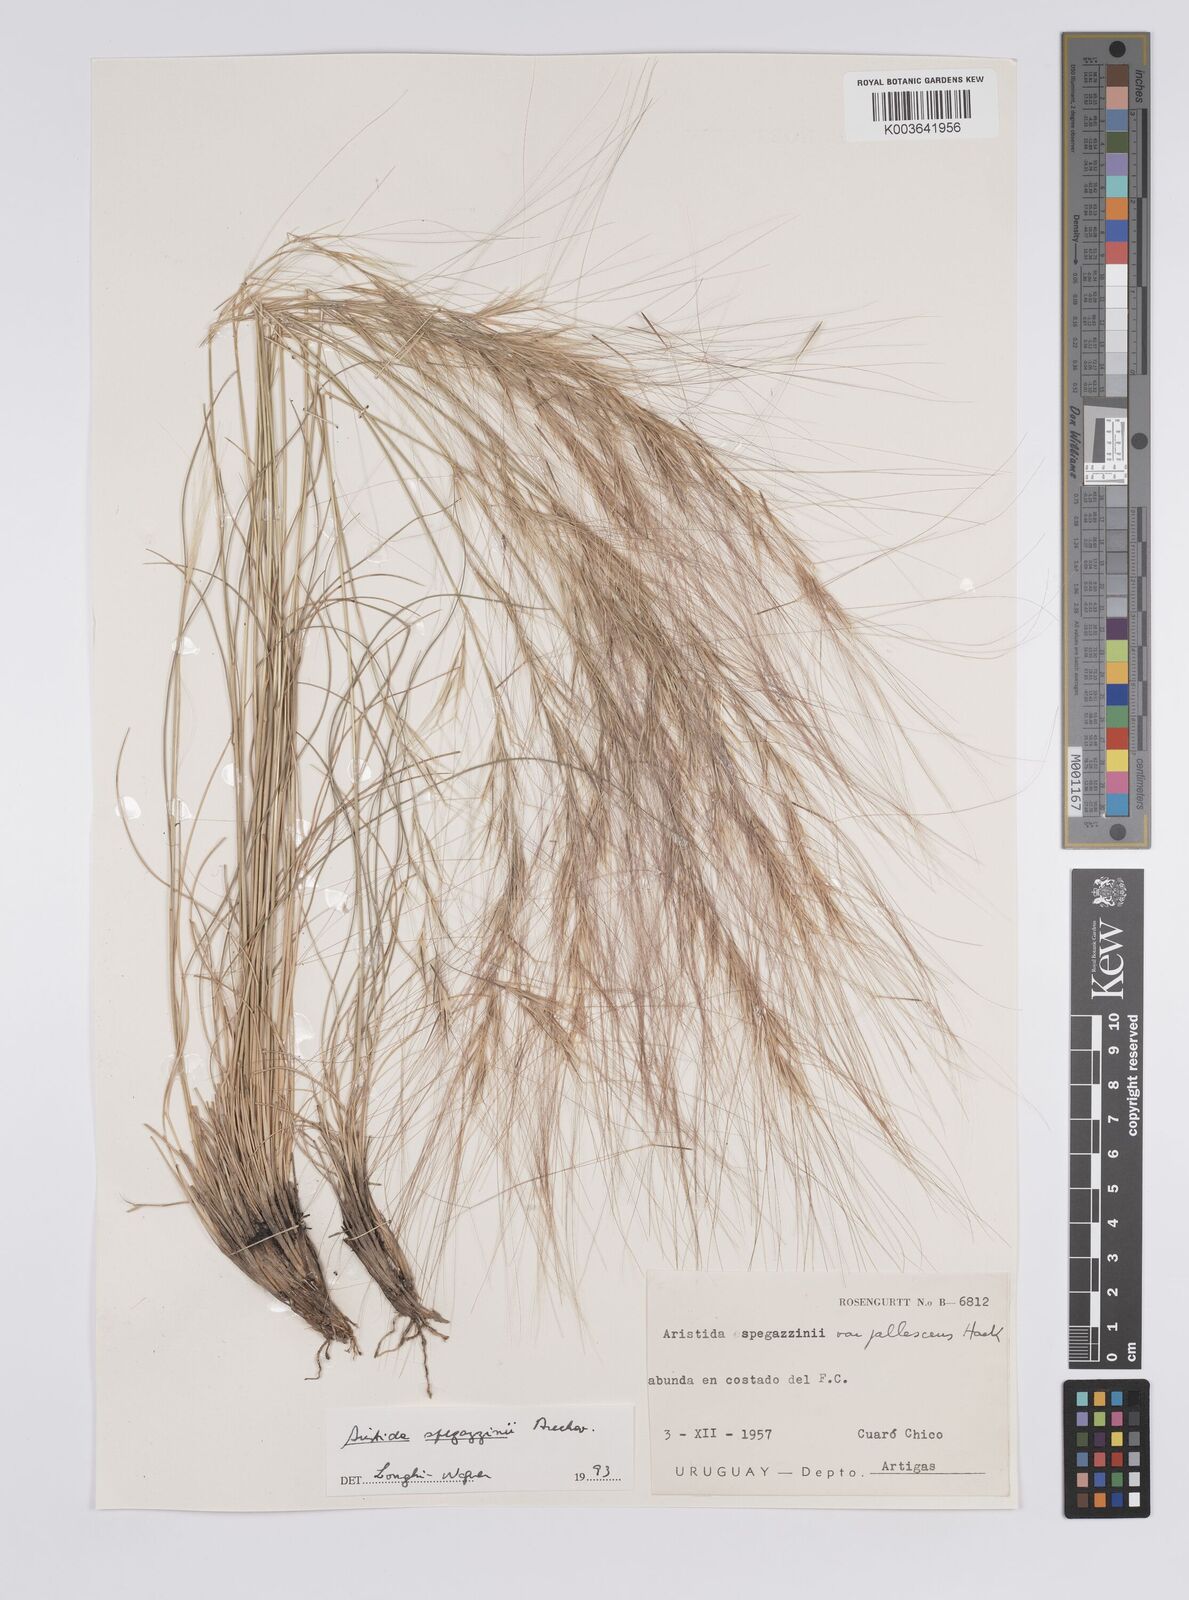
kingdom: Plantae
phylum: Tracheophyta
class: Liliopsida
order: Poales
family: Poaceae
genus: Aristida
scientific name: Aristida spegazzinii
